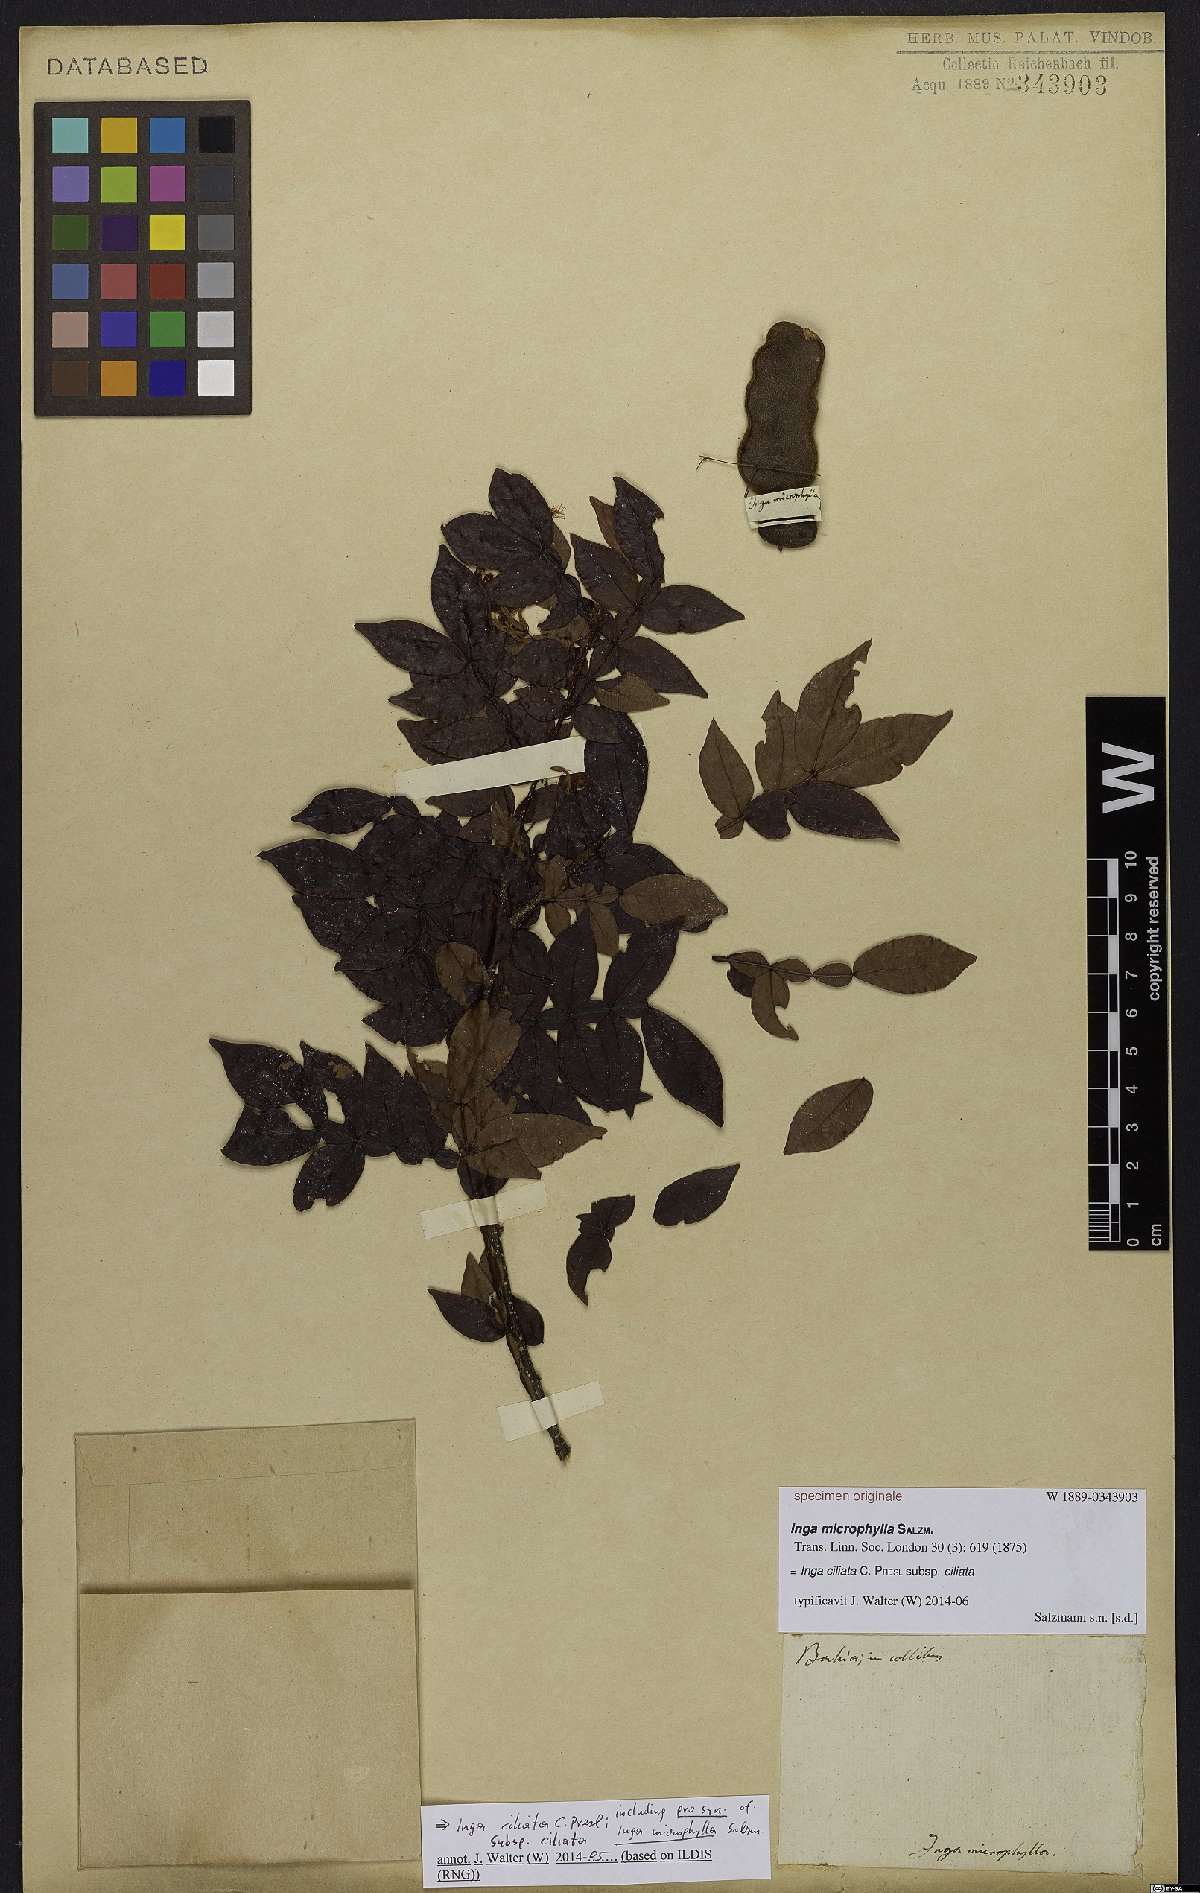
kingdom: Plantae
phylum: Tracheophyta
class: Magnoliopsida
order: Fabales
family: Fabaceae
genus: Inga
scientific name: Inga ciliata
